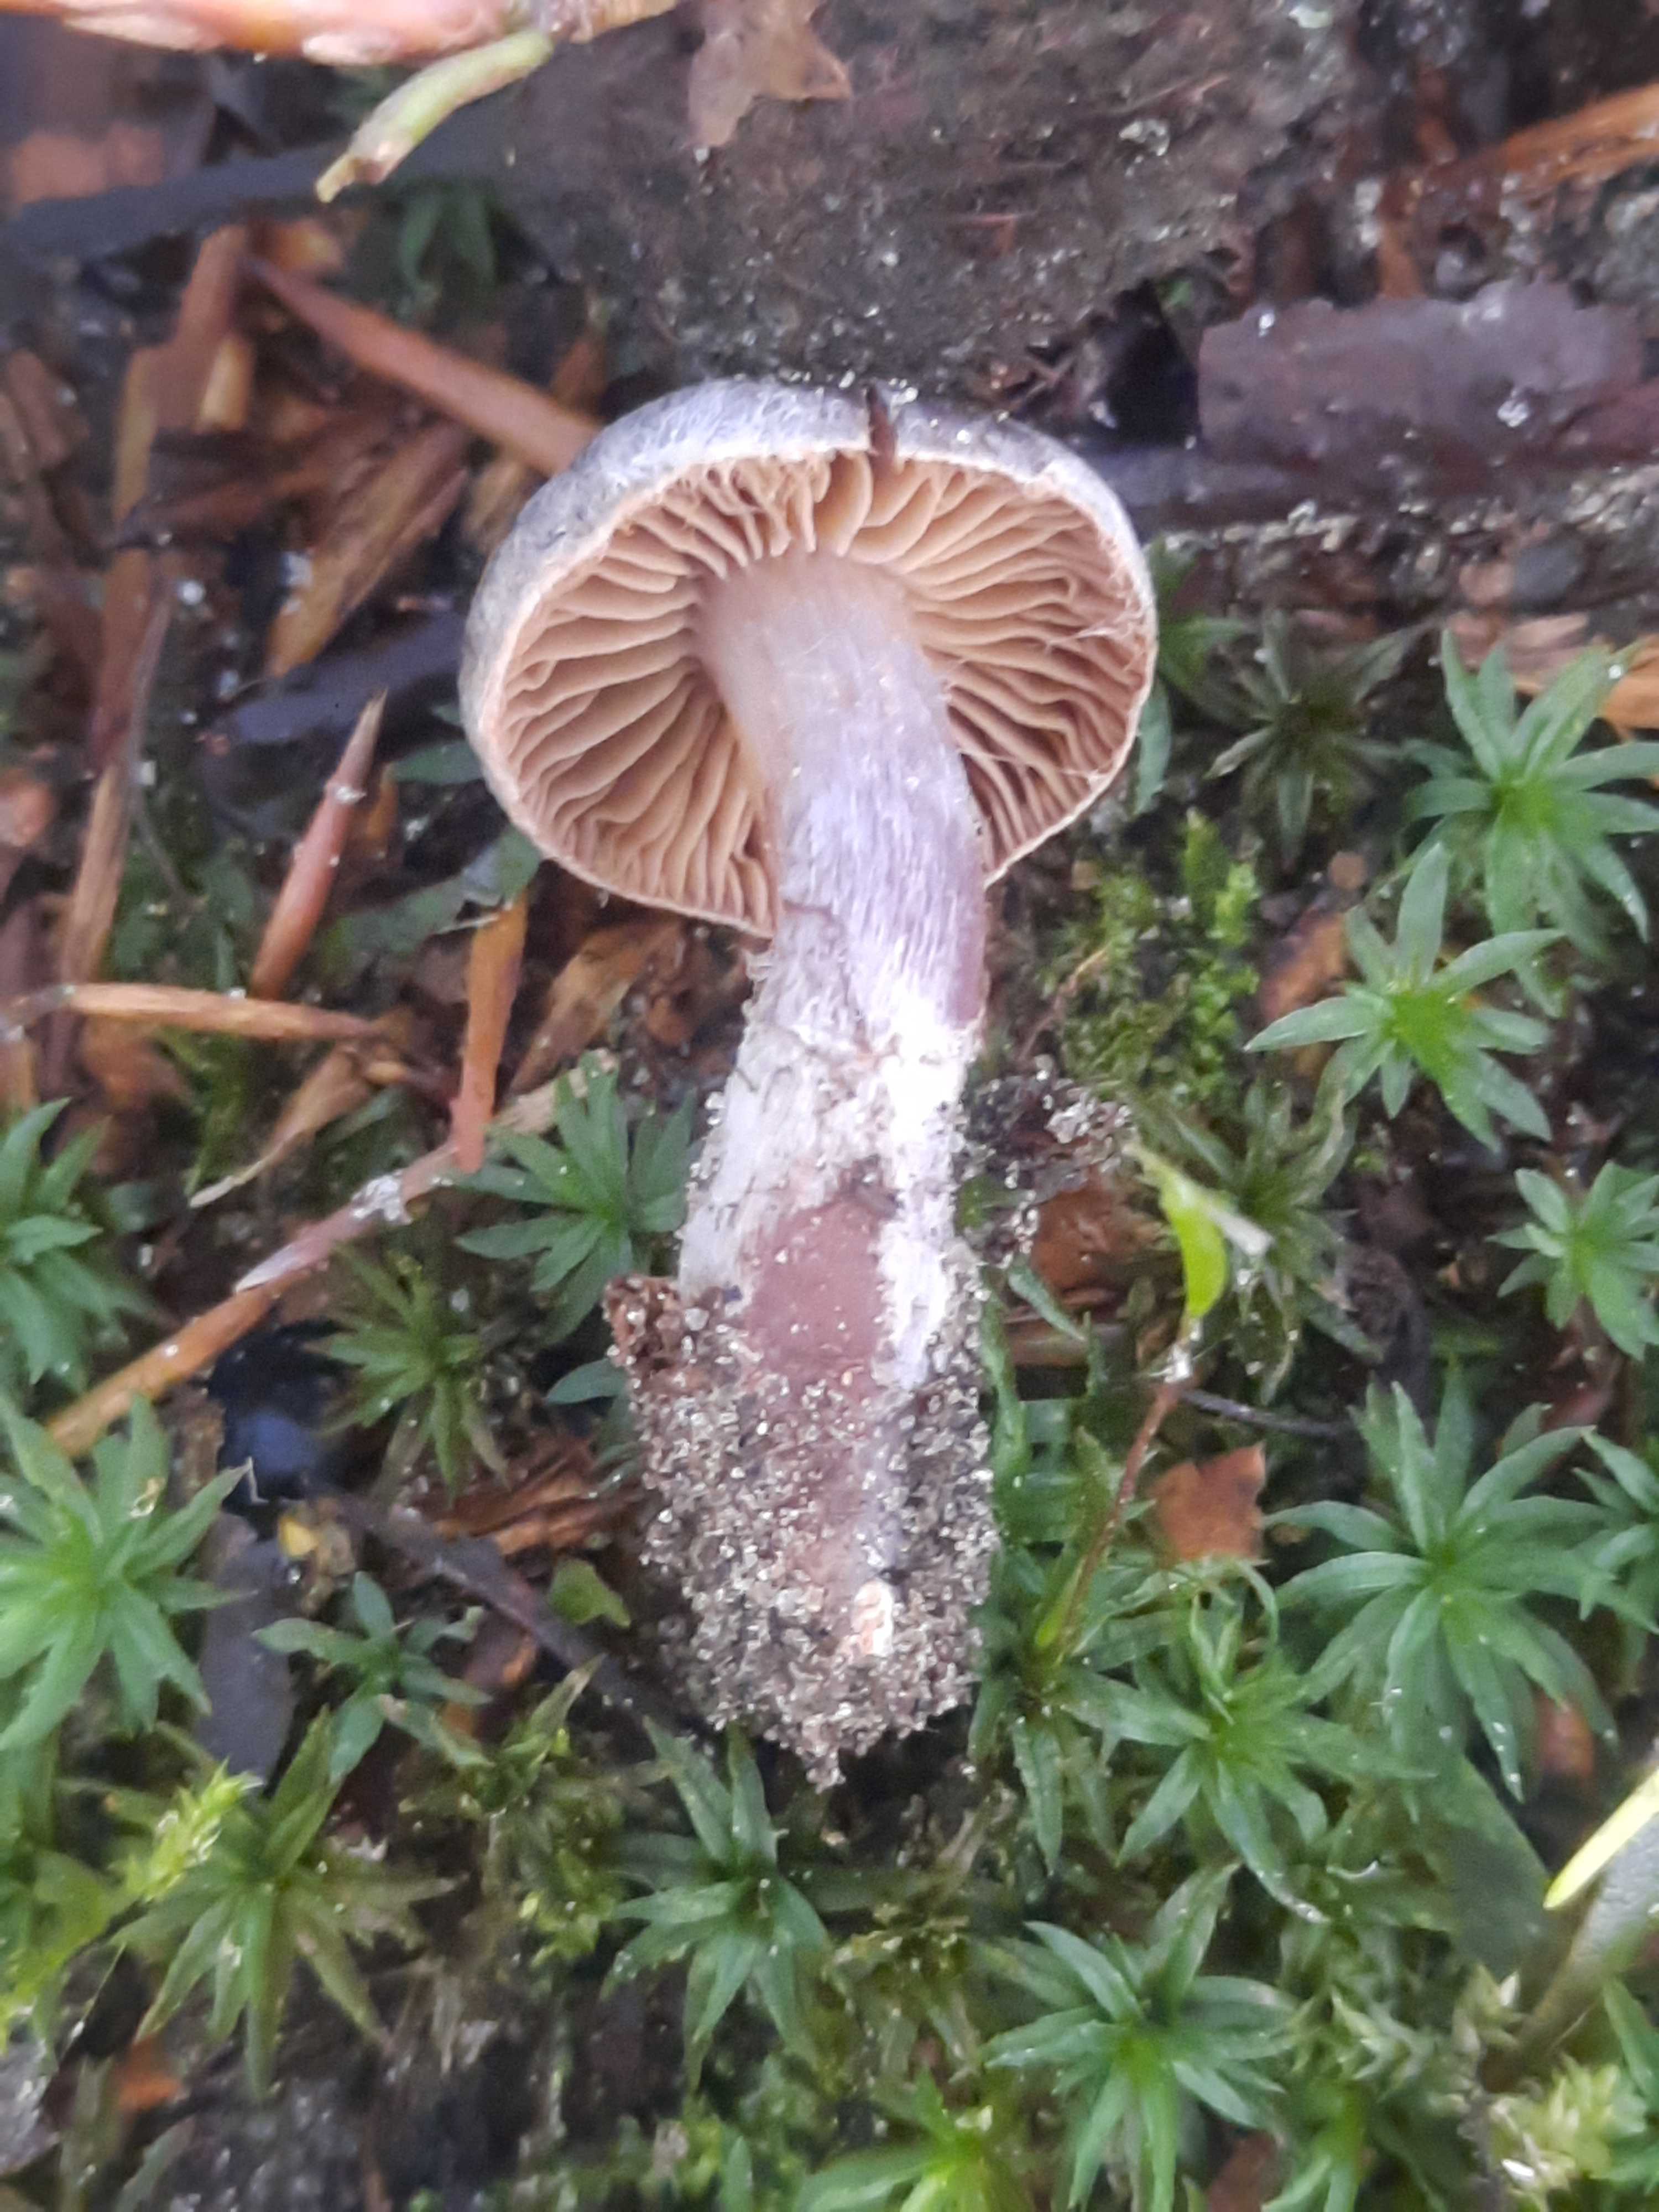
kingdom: Fungi
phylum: Basidiomycota
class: Agaricomycetes
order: Agaricales
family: Cortinariaceae
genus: Cortinarius
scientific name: Cortinarius
